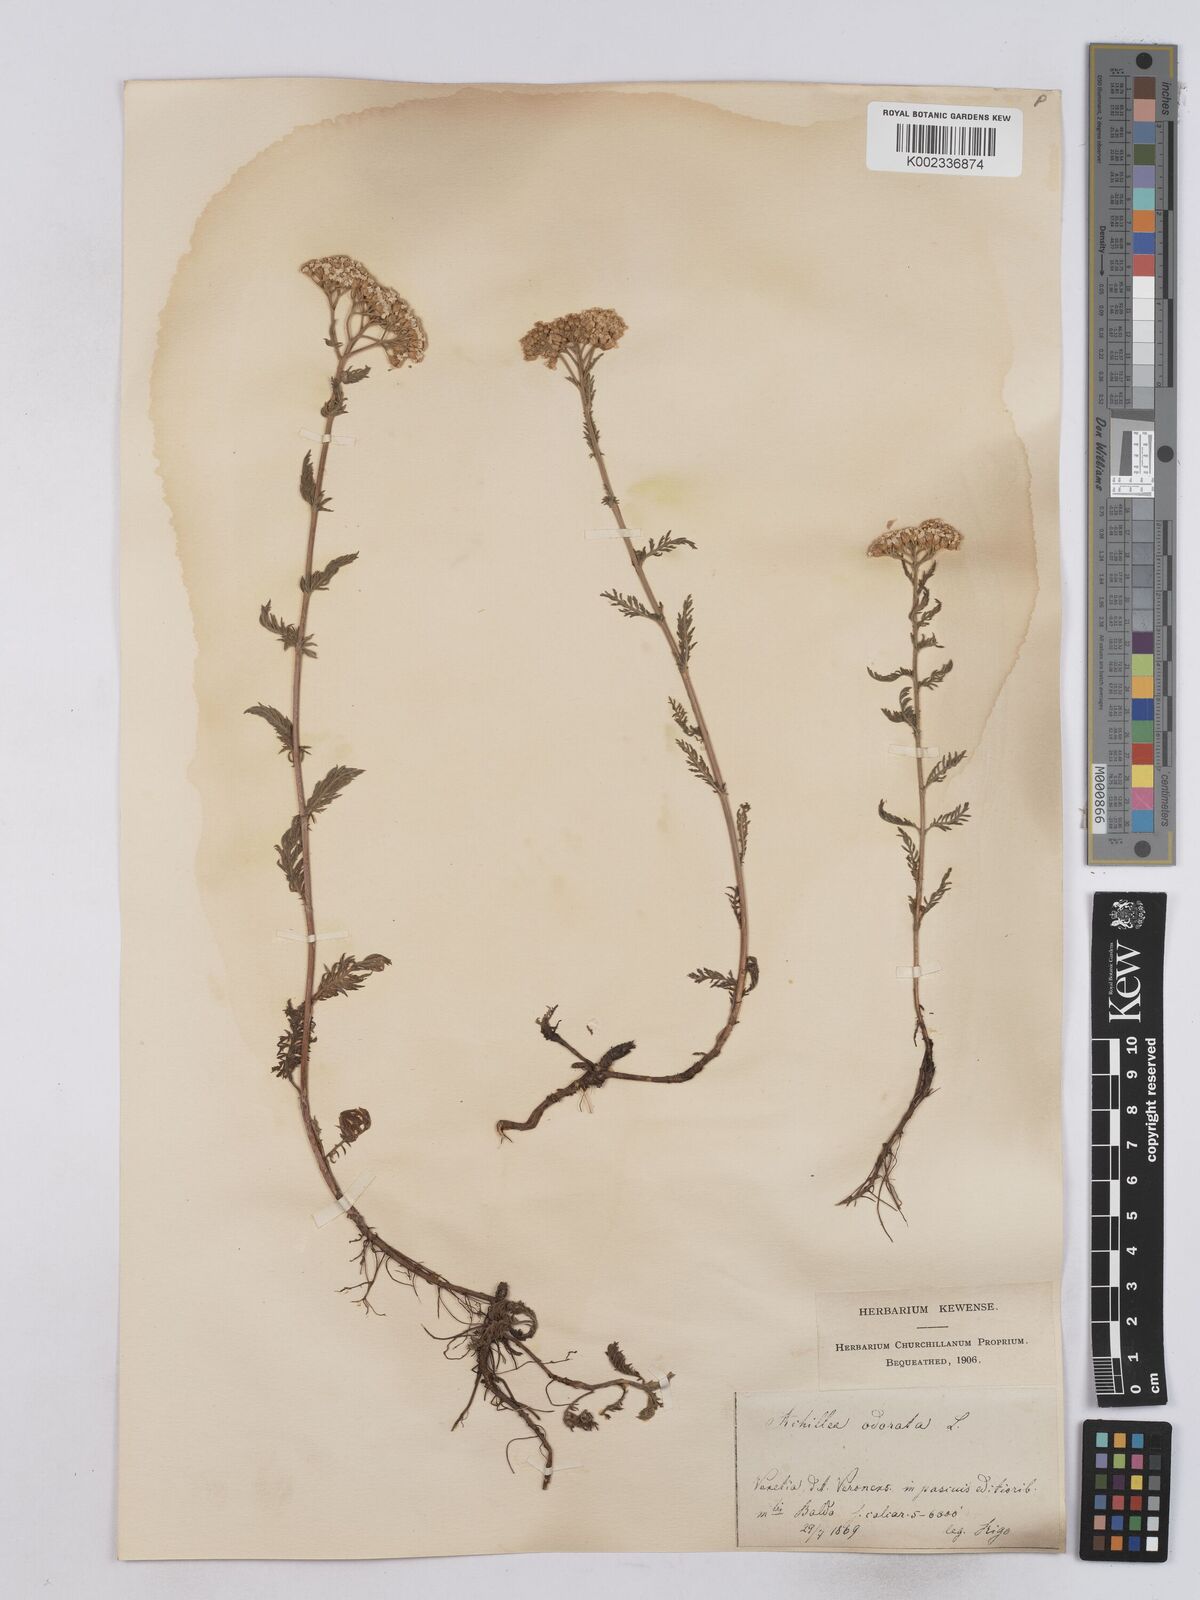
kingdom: Plantae
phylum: Tracheophyta
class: Magnoliopsida
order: Asterales
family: Asteraceae
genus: Achillea
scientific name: Achillea odorata
